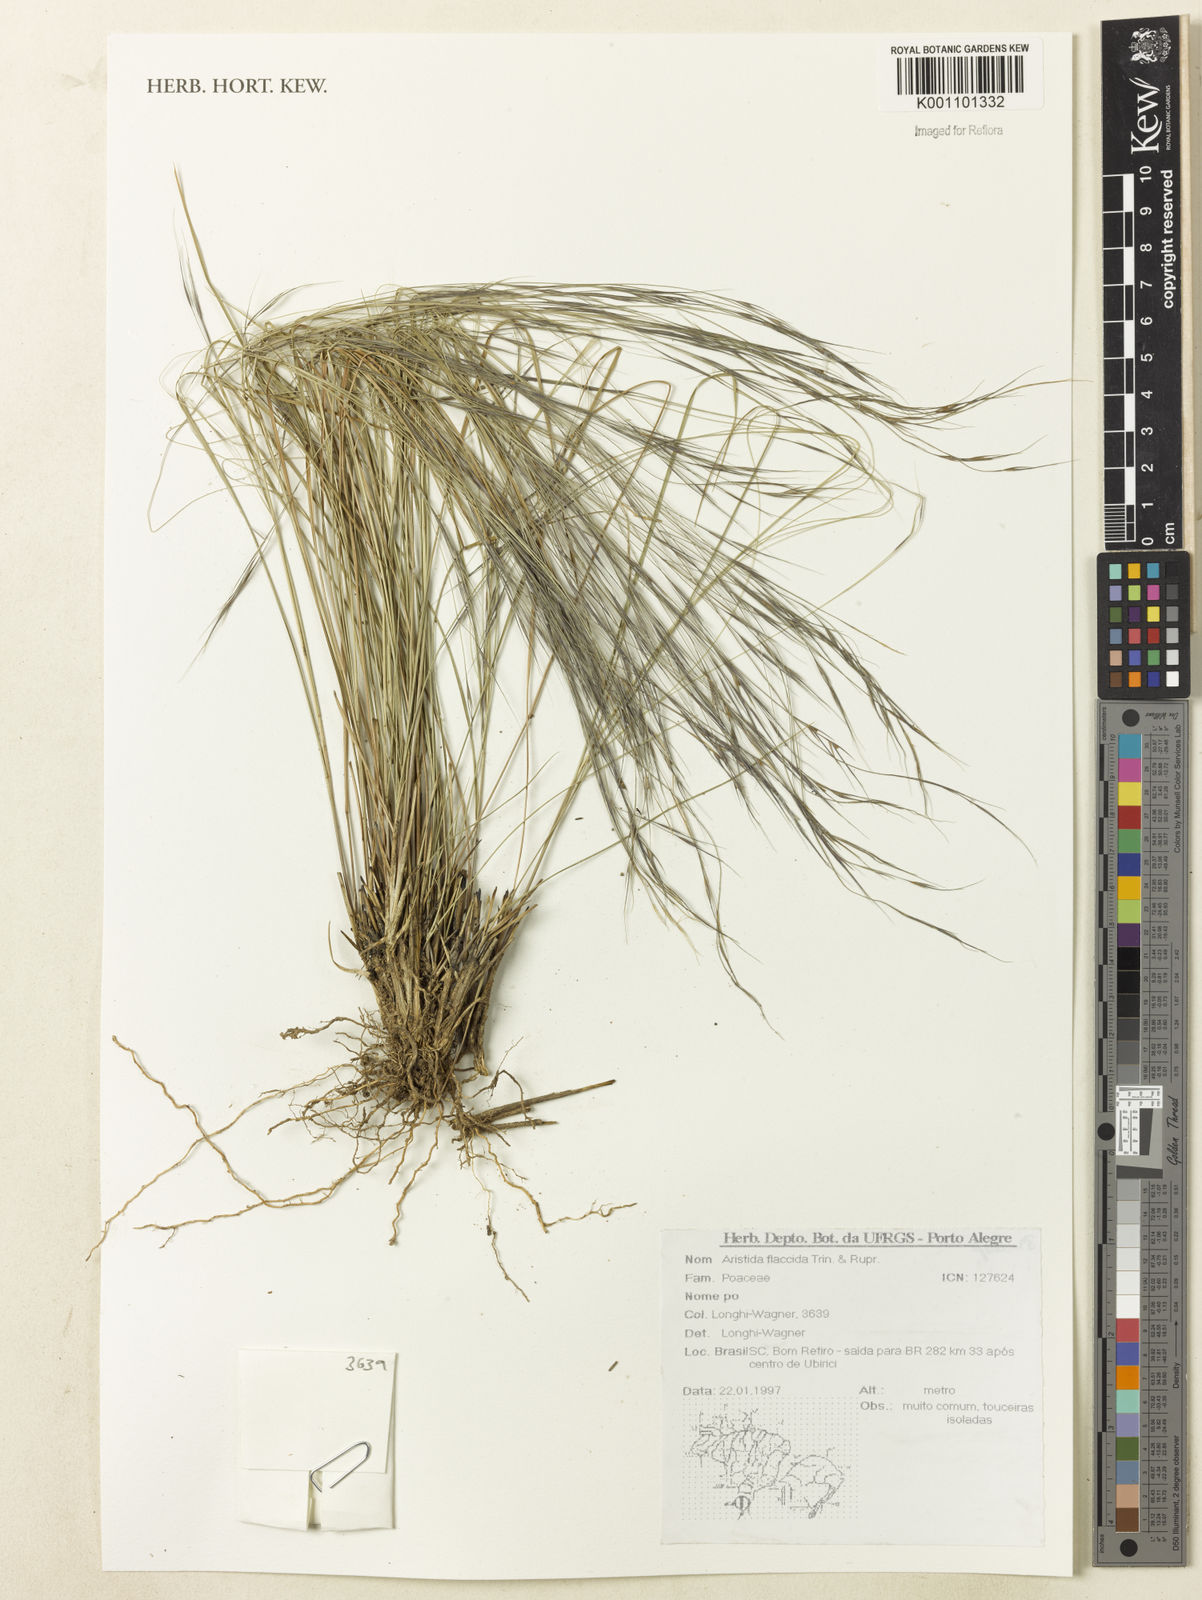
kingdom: Plantae
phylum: Tracheophyta
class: Liliopsida
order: Poales
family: Poaceae
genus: Aristida
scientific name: Aristida flaccida
